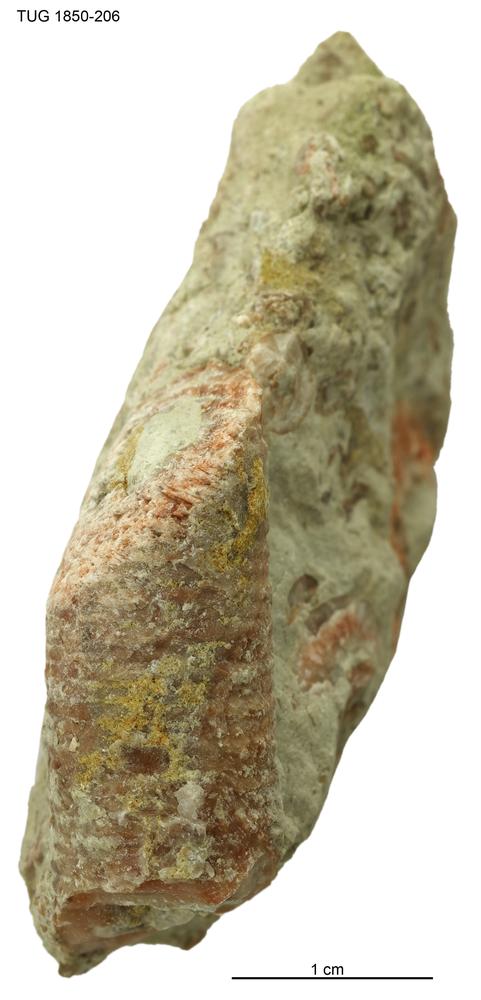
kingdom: Animalia
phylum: Echinodermata
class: Crinoidea
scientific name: Crinoidea
